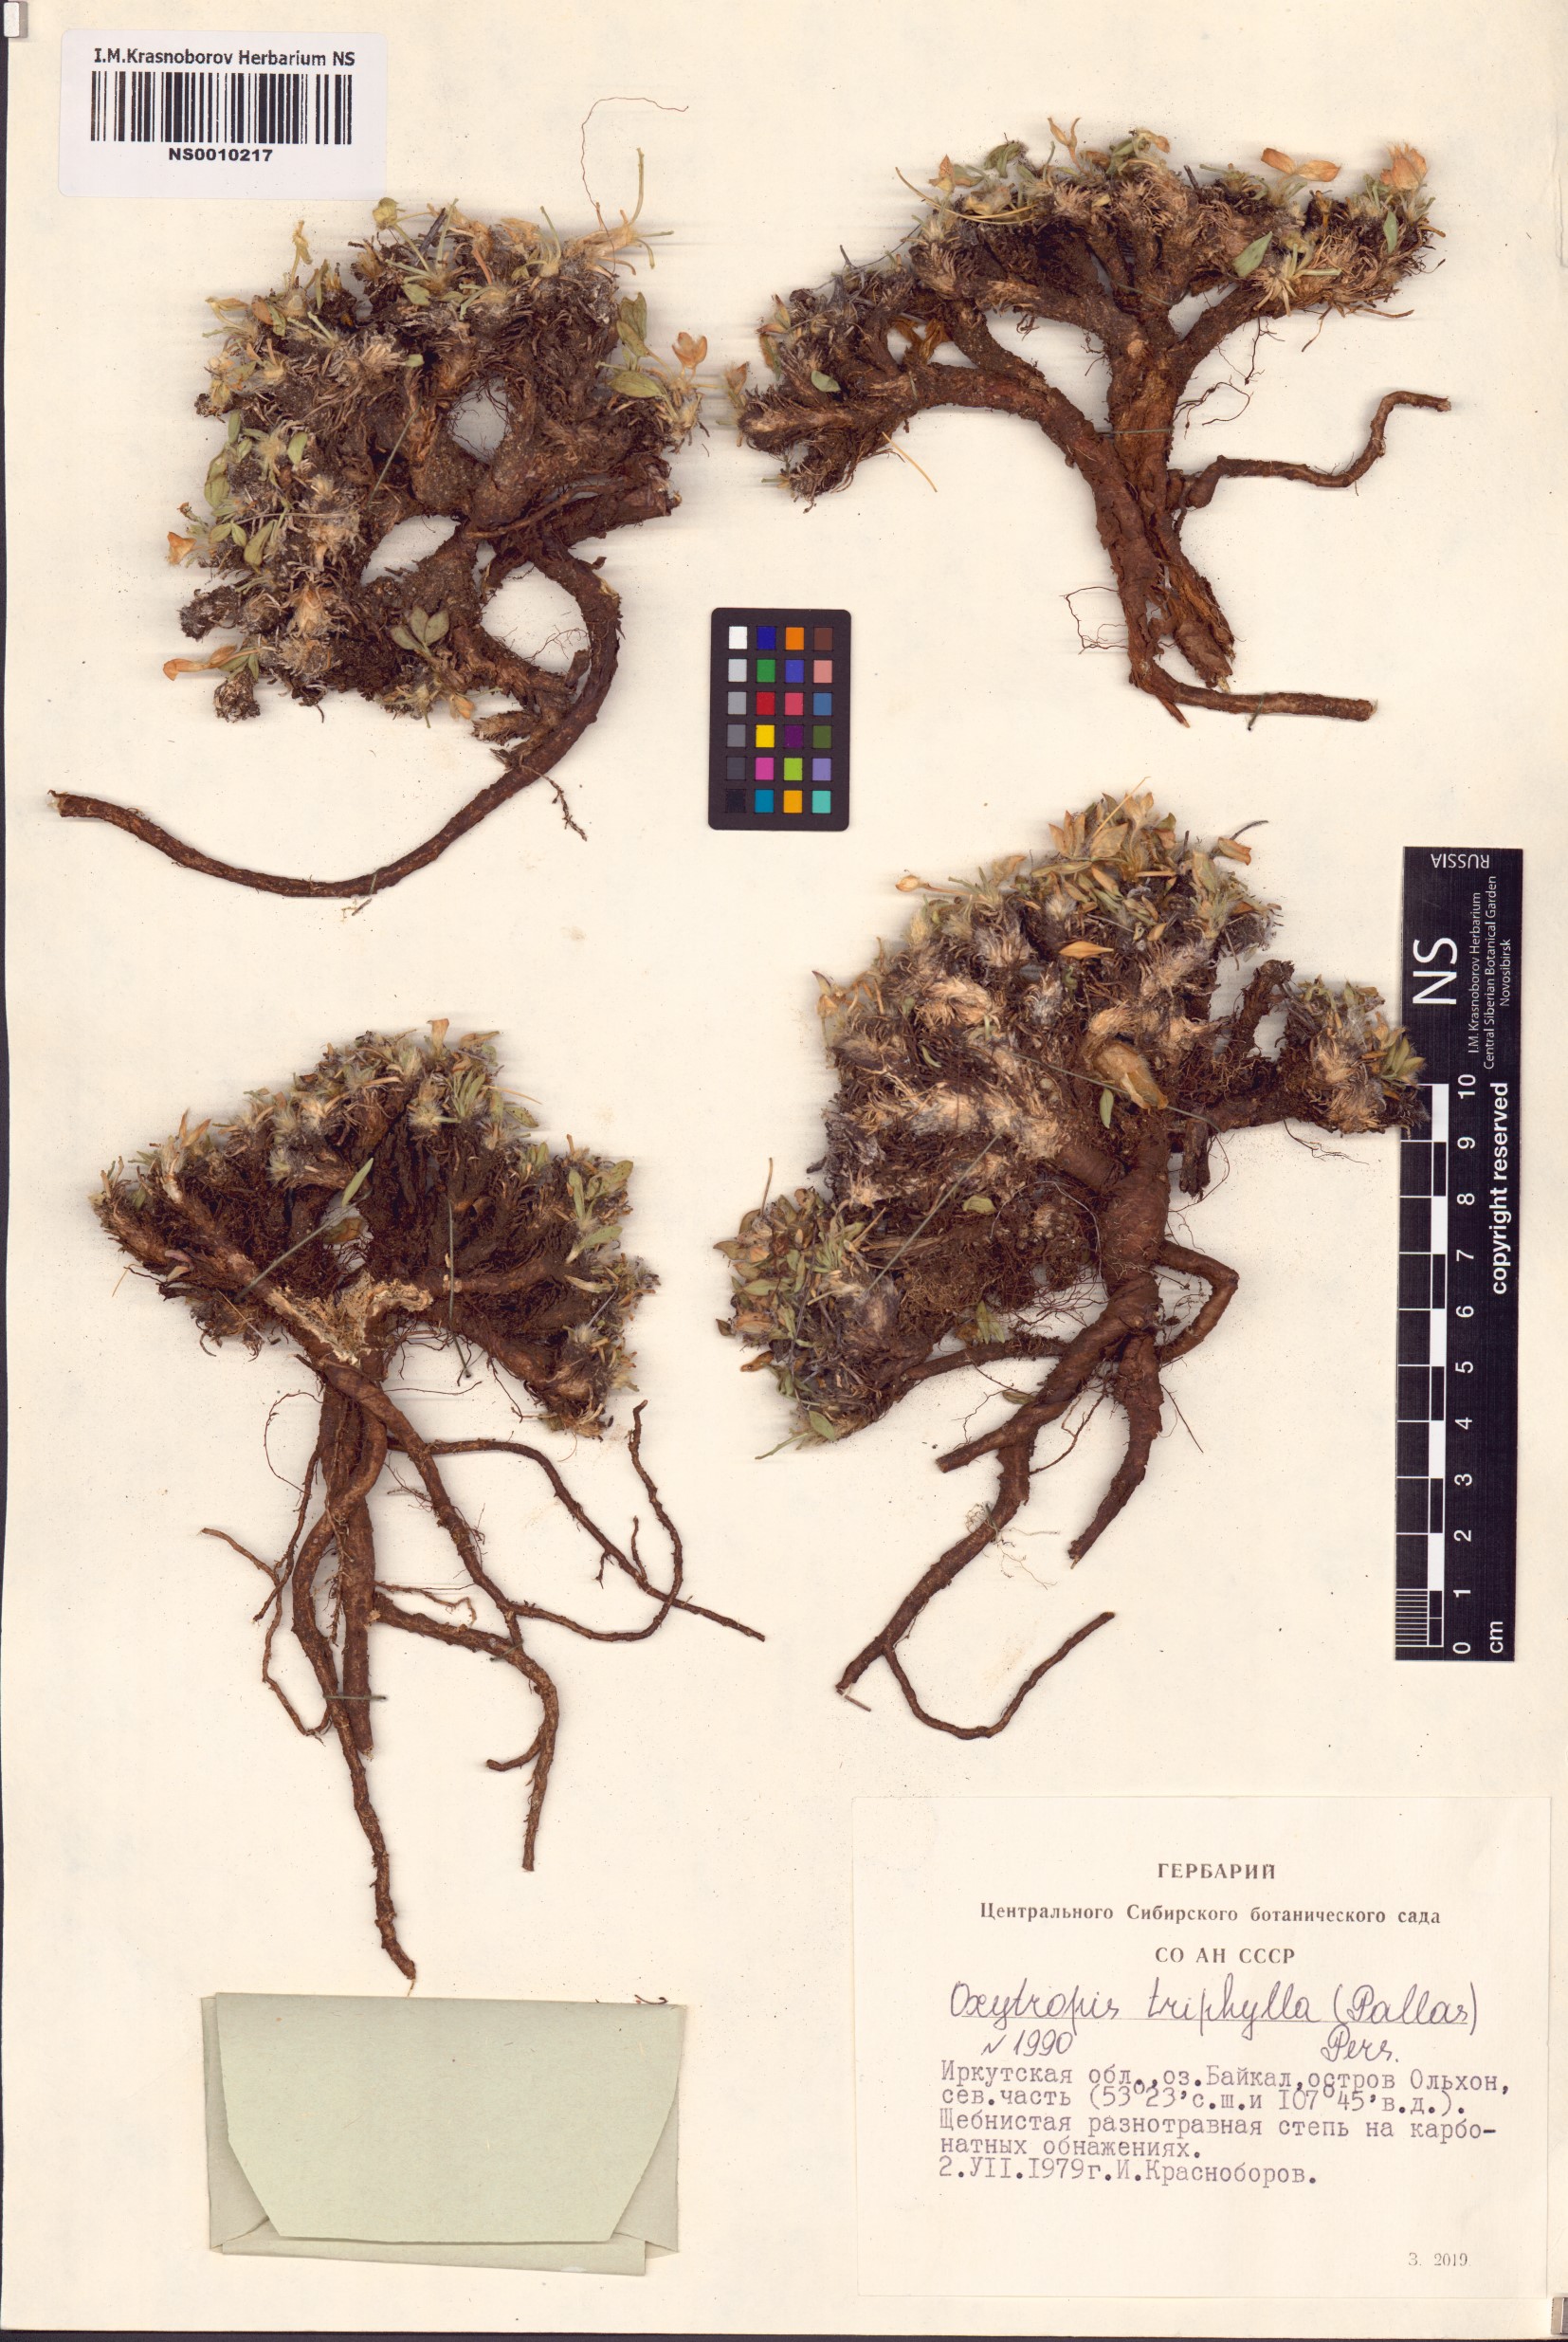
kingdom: Plantae
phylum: Tracheophyta
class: Magnoliopsida
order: Fabales
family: Fabaceae
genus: Oxytropis
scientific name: Oxytropis triphylla
